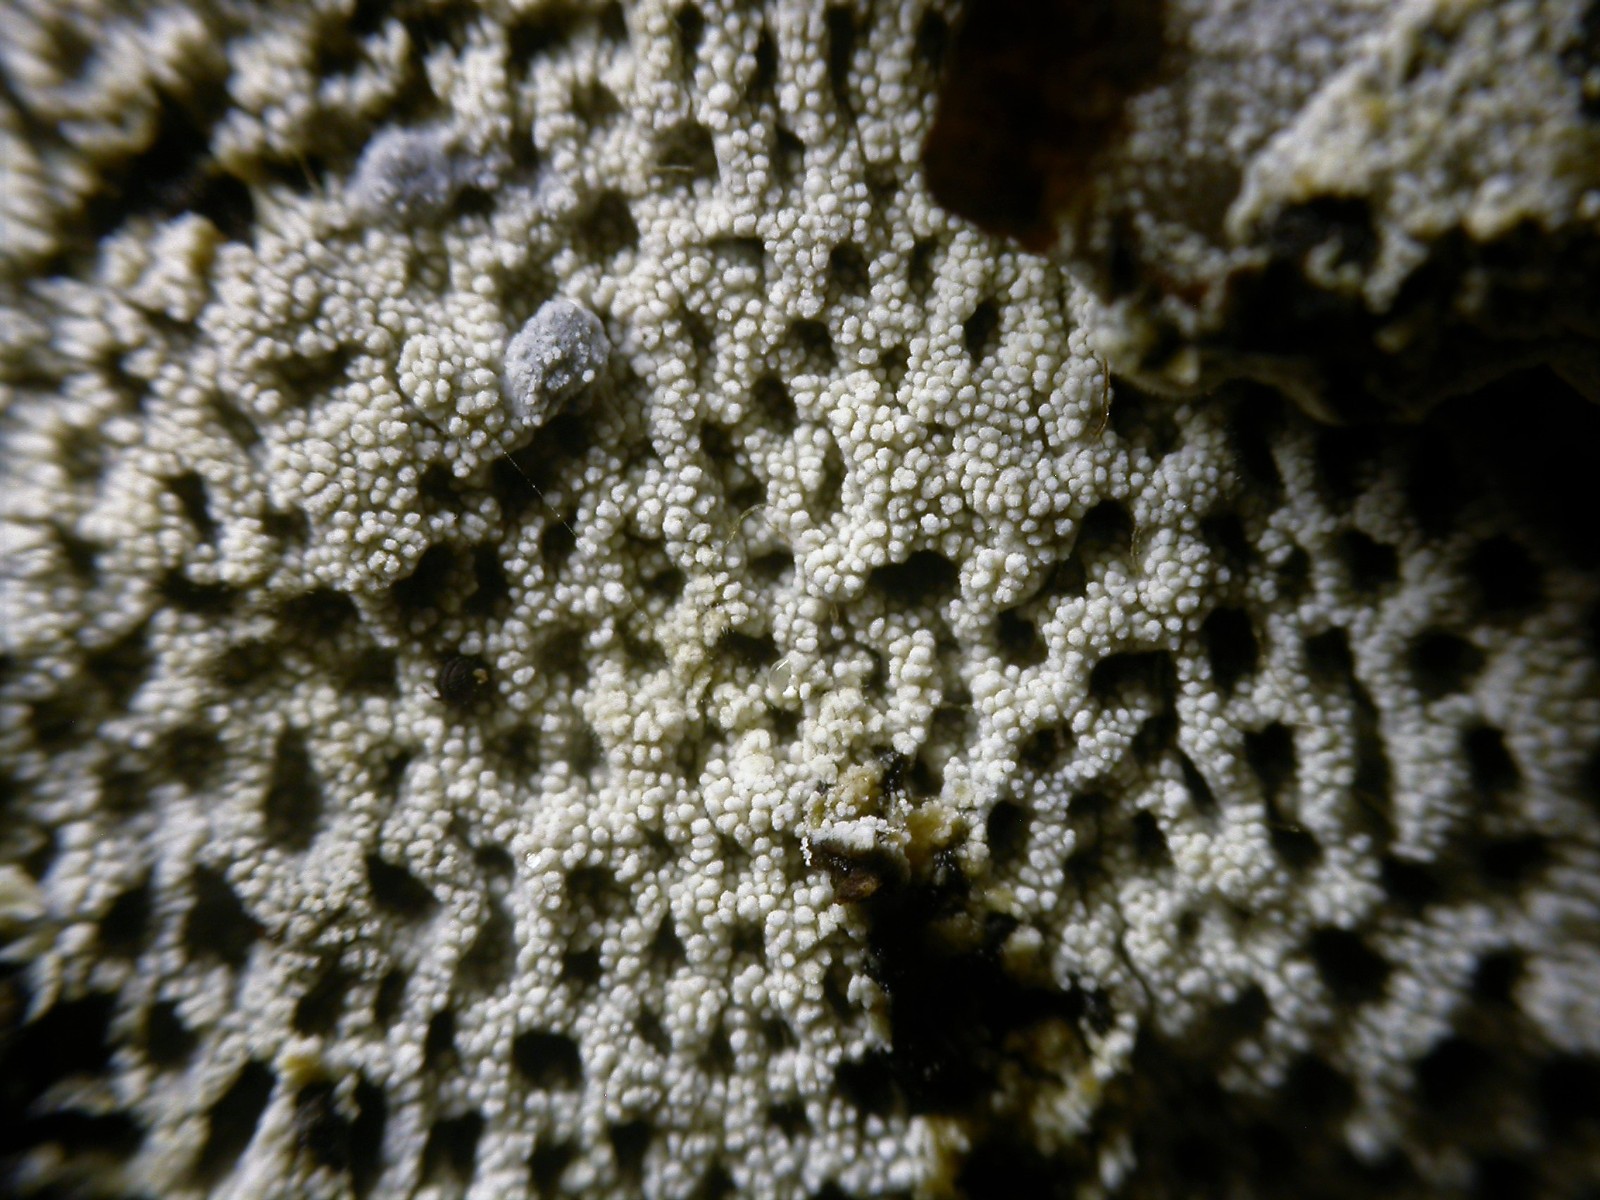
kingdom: Fungi
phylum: Basidiomycota
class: Agaricomycetes
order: Corticiales
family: Corticiaceae
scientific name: Corticiaceae
